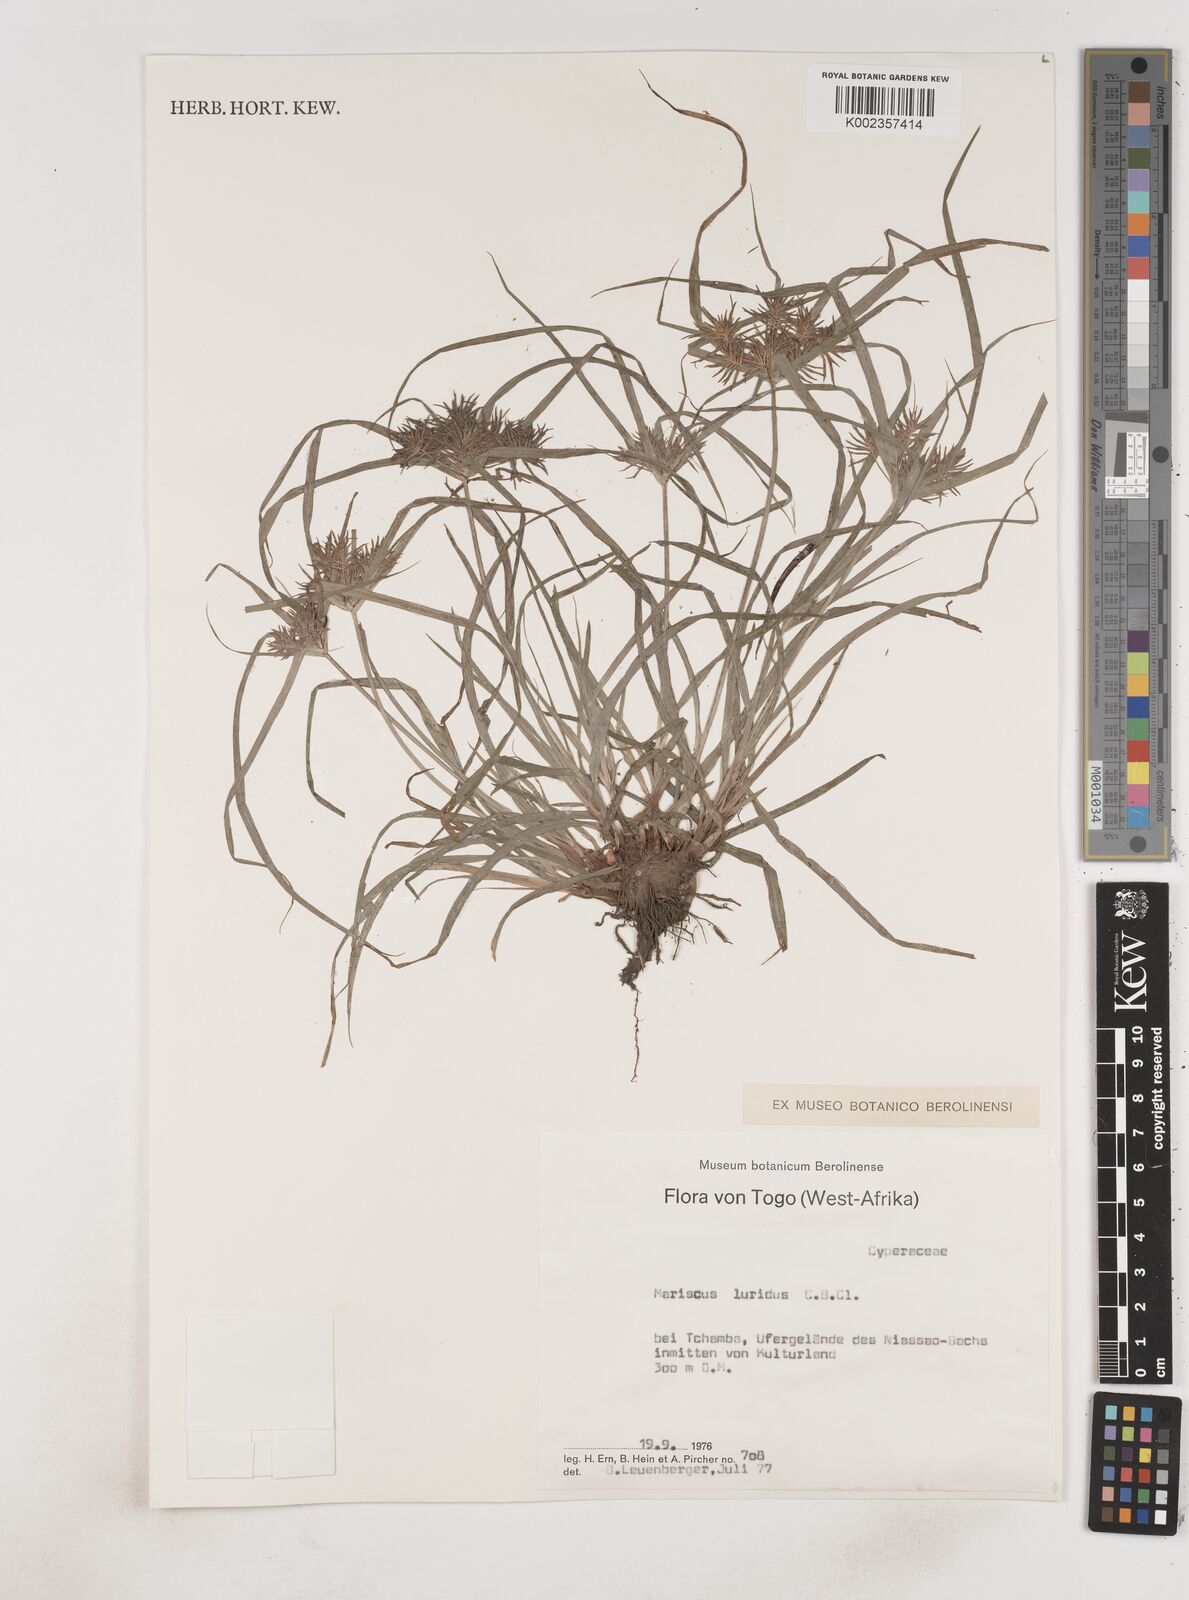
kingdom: Plantae
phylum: Tracheophyta
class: Liliopsida
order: Poales
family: Cyperaceae
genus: Cyperus
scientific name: Cyperus tenuis
